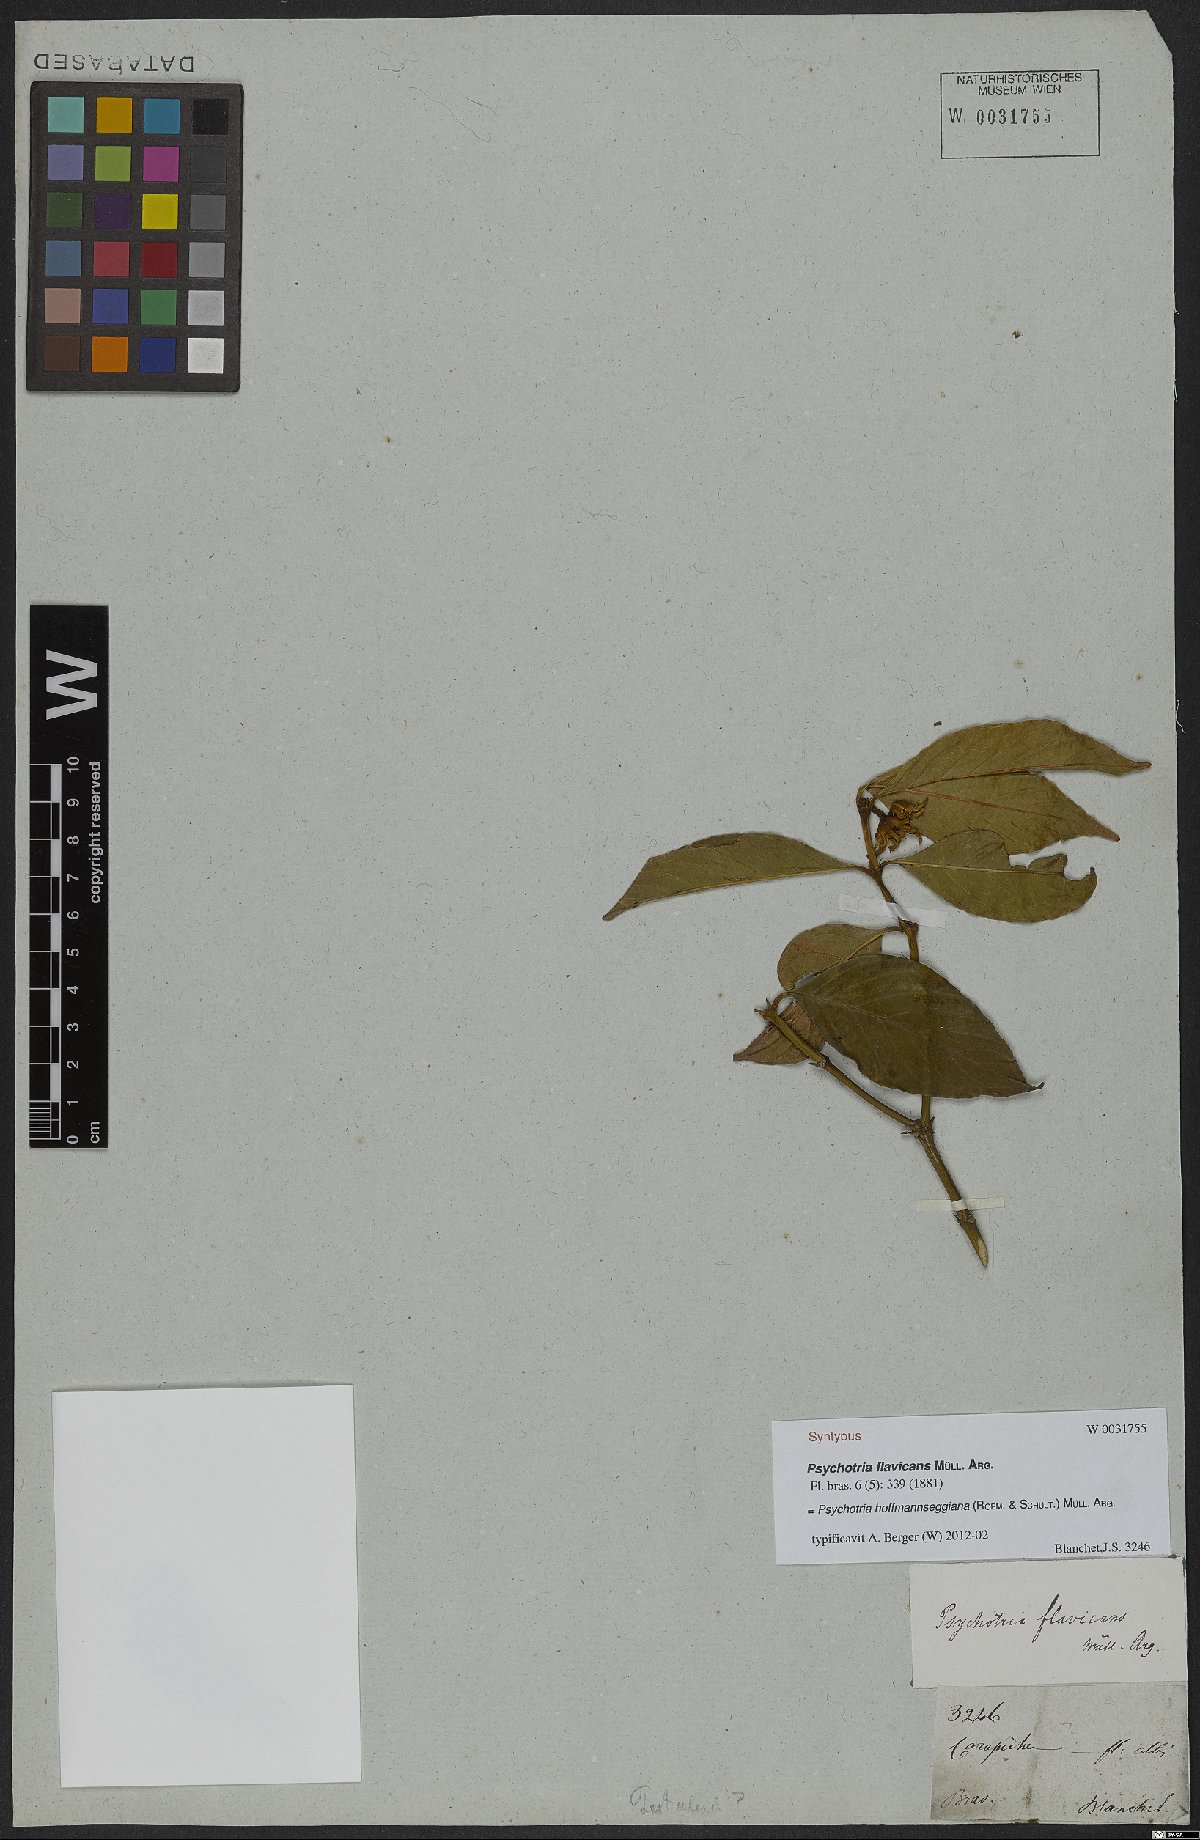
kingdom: Plantae
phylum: Tracheophyta
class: Magnoliopsida
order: Gentianales
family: Rubiaceae
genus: Palicourea
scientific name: Palicourea hoffmannseggiana
